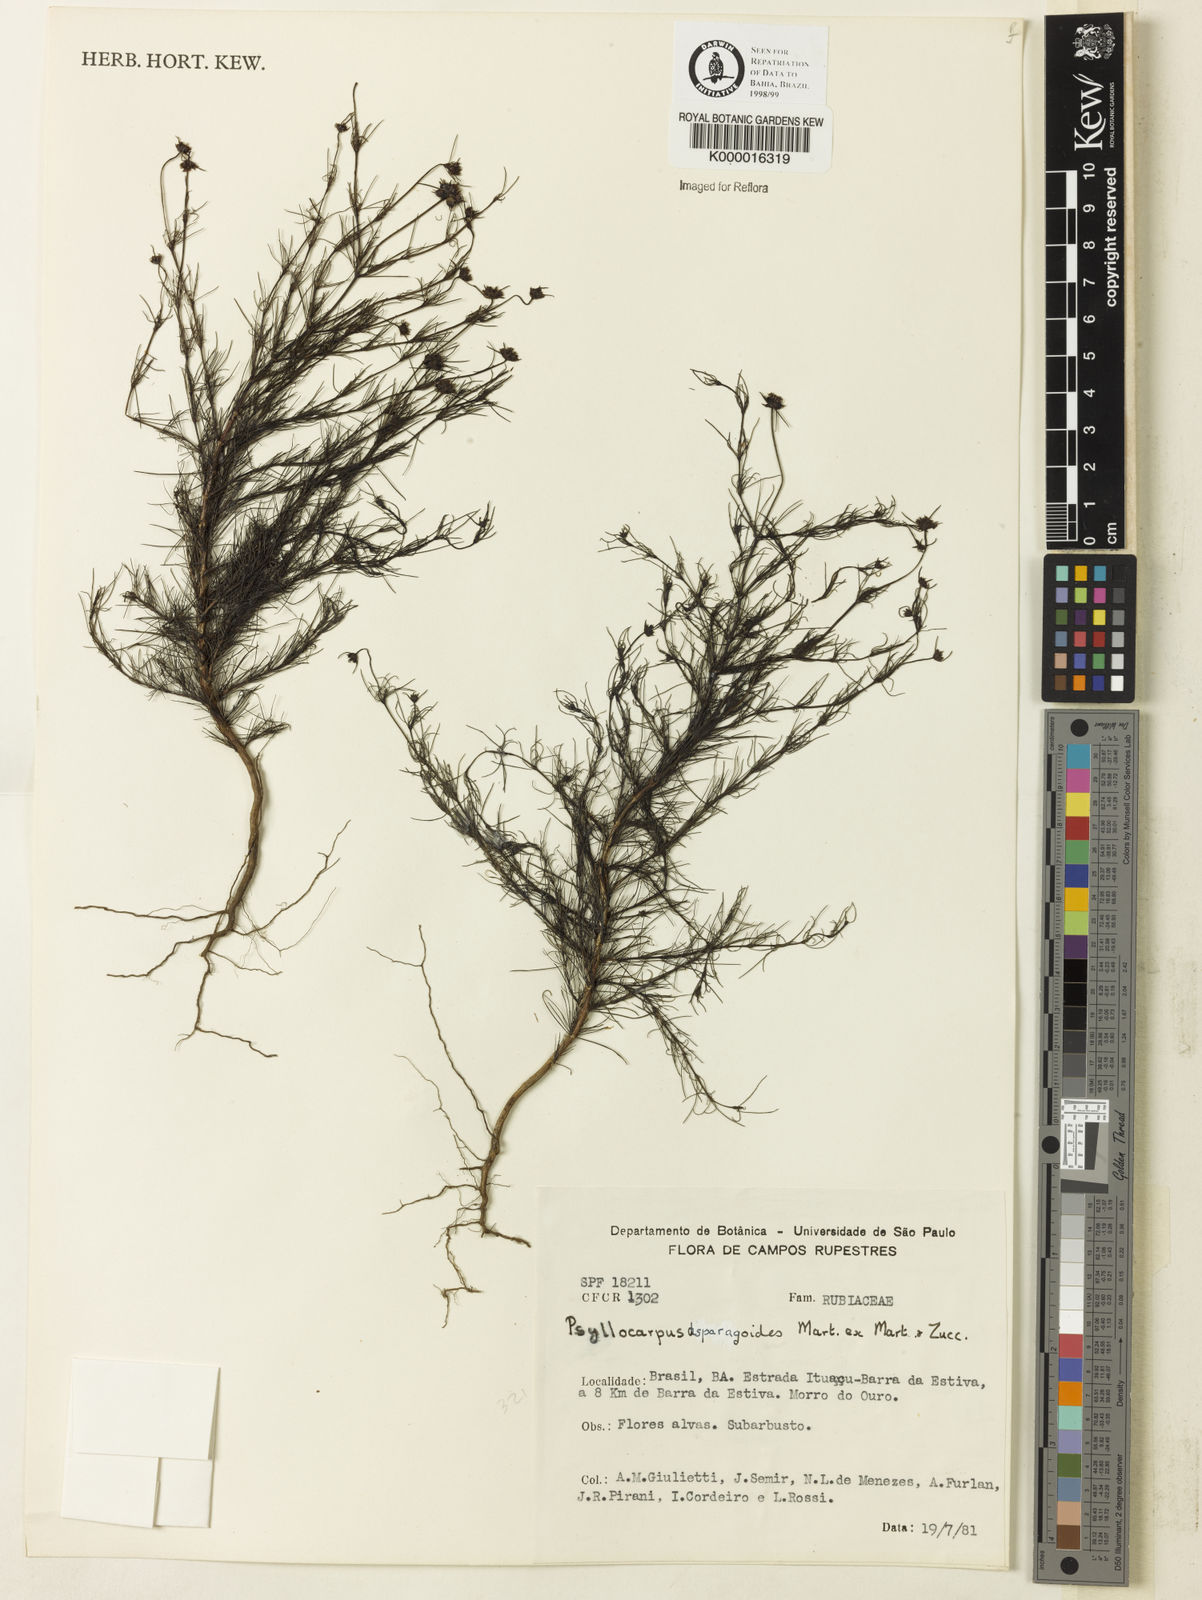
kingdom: Plantae
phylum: Tracheophyta
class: Magnoliopsida
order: Gentianales
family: Rubiaceae
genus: Psyllocarpus
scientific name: Psyllocarpus asparagoides
